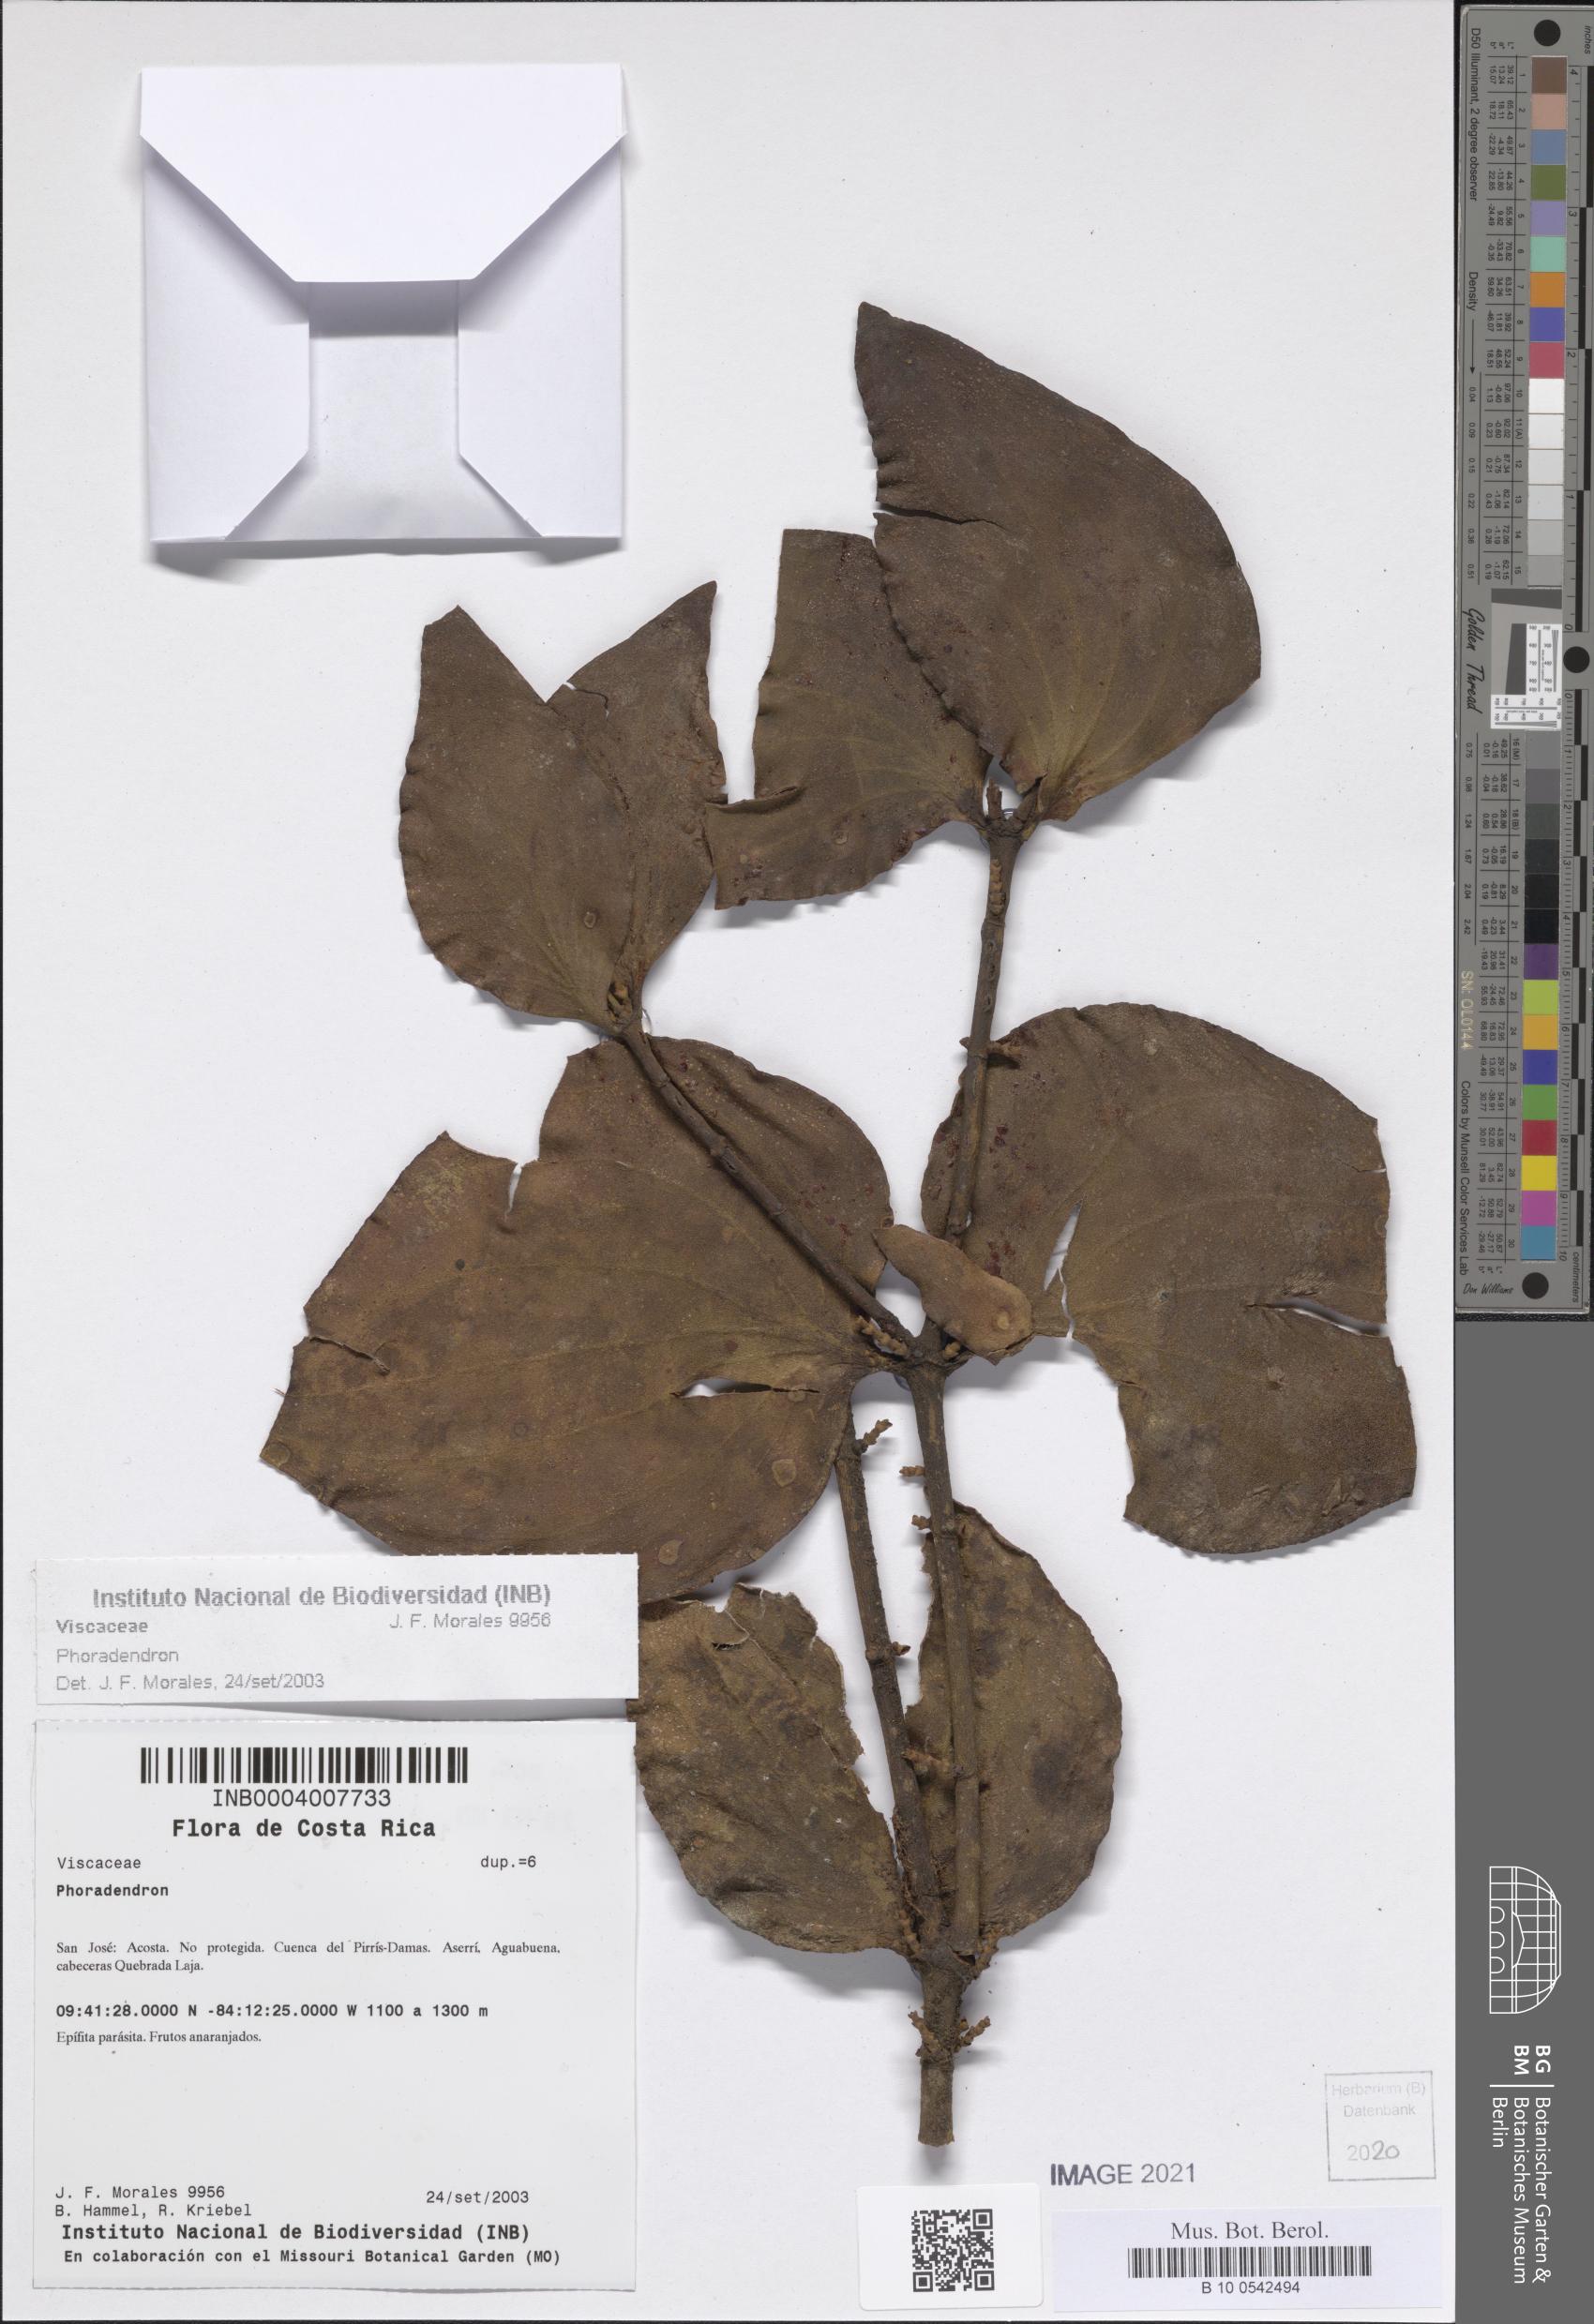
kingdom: Plantae
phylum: Tracheophyta
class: Magnoliopsida
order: Santalales
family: Viscaceae
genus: Phoradendron
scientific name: Phoradendron
